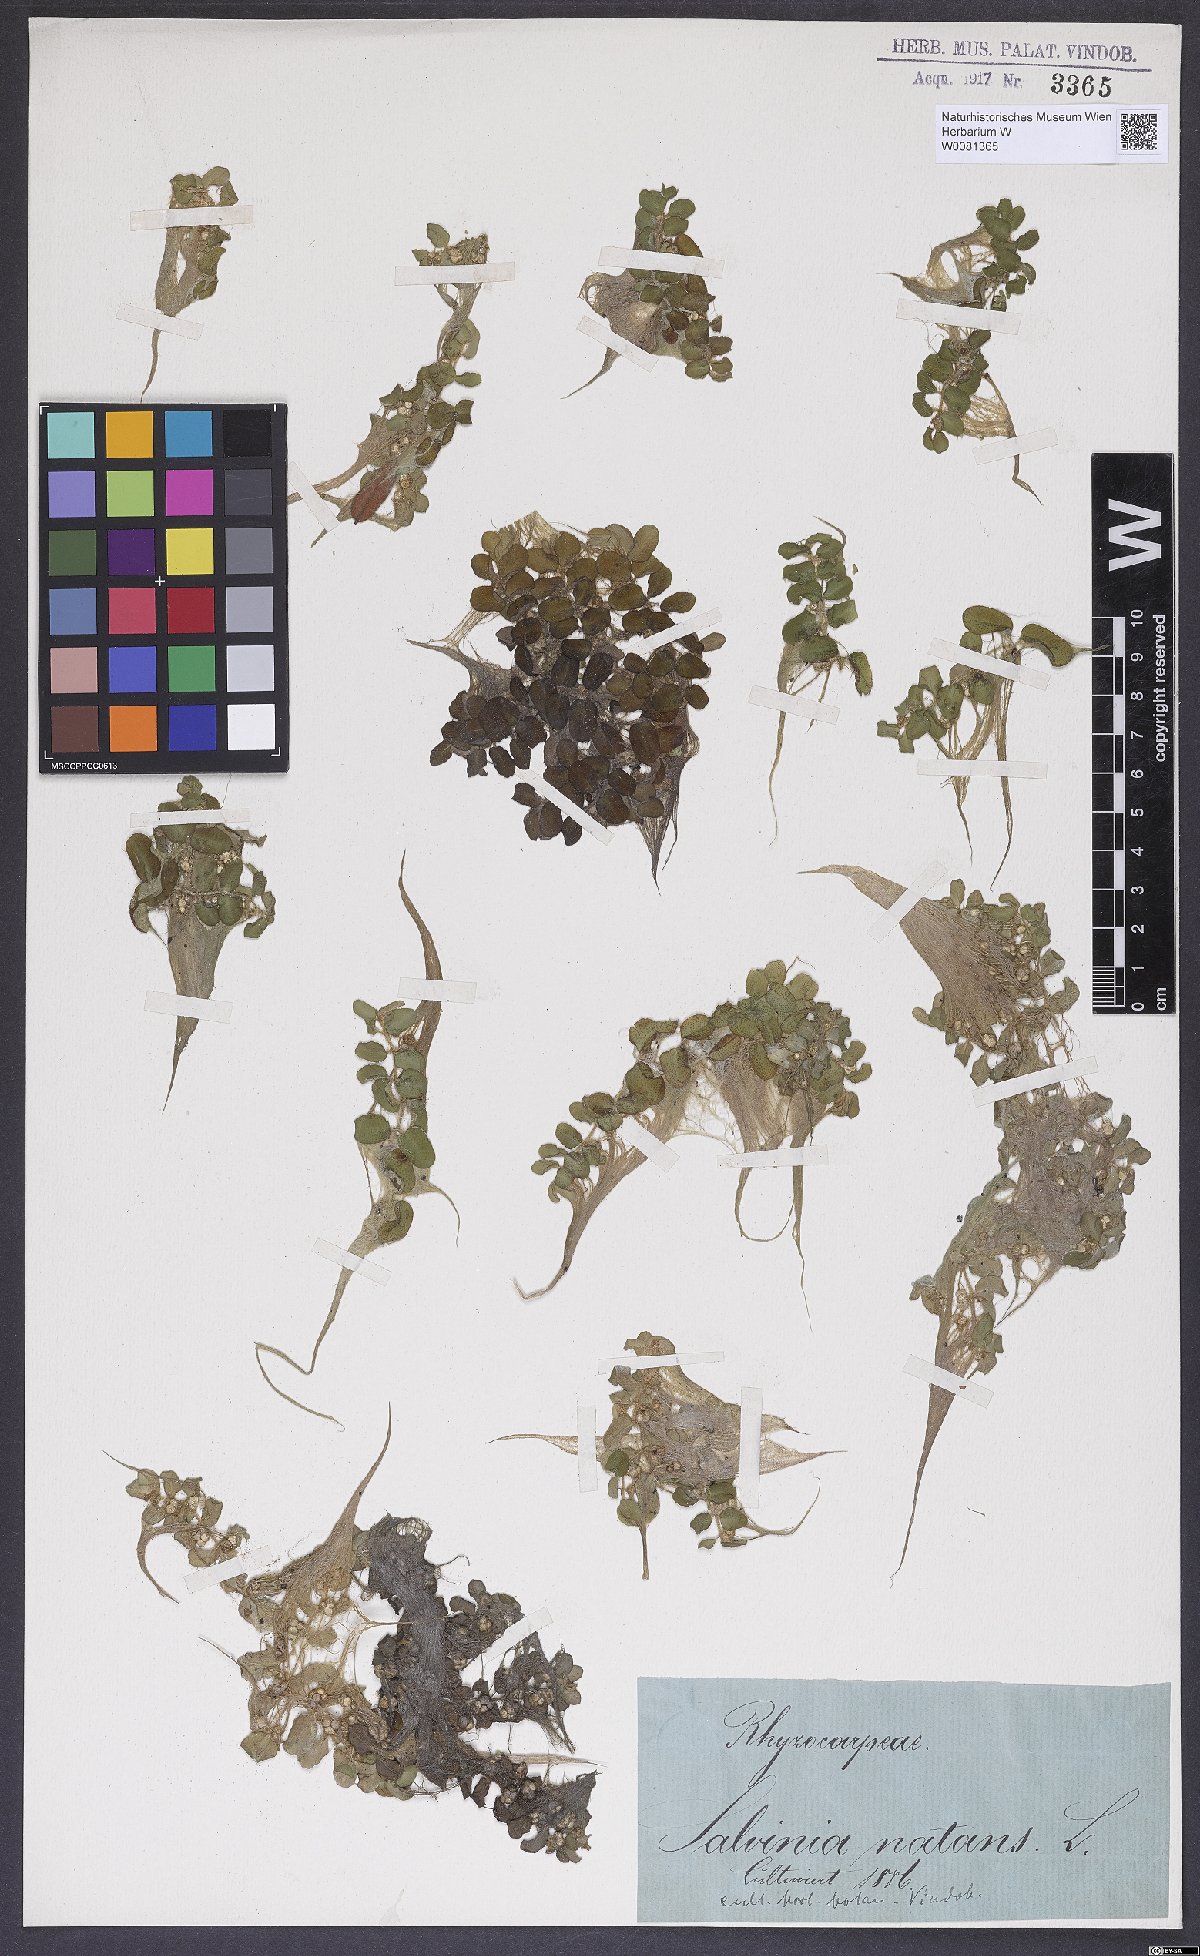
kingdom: Plantae
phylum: Tracheophyta
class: Polypodiopsida
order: Salviniales
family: Salviniaceae
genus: Salvinia
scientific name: Salvinia natans
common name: Floating fern
